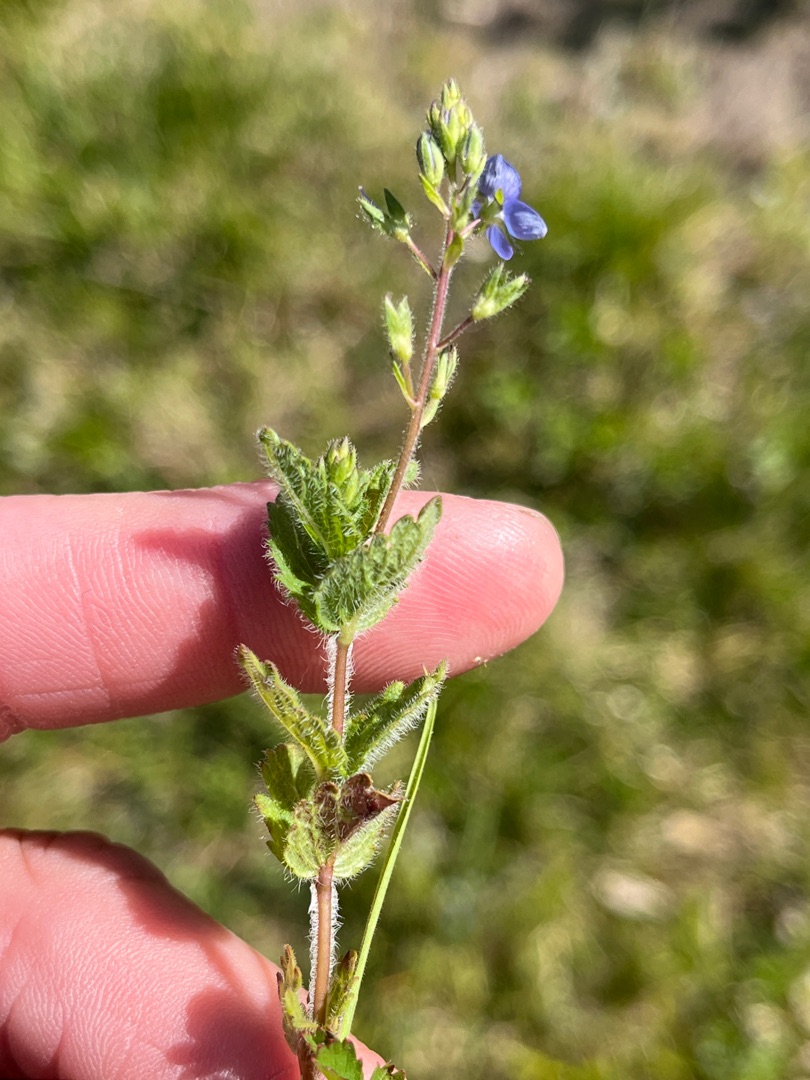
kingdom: Plantae
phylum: Tracheophyta
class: Magnoliopsida
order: Lamiales
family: Plantaginaceae
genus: Veronica
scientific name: Veronica chamaedrys
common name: Tveskægget ærenpris
